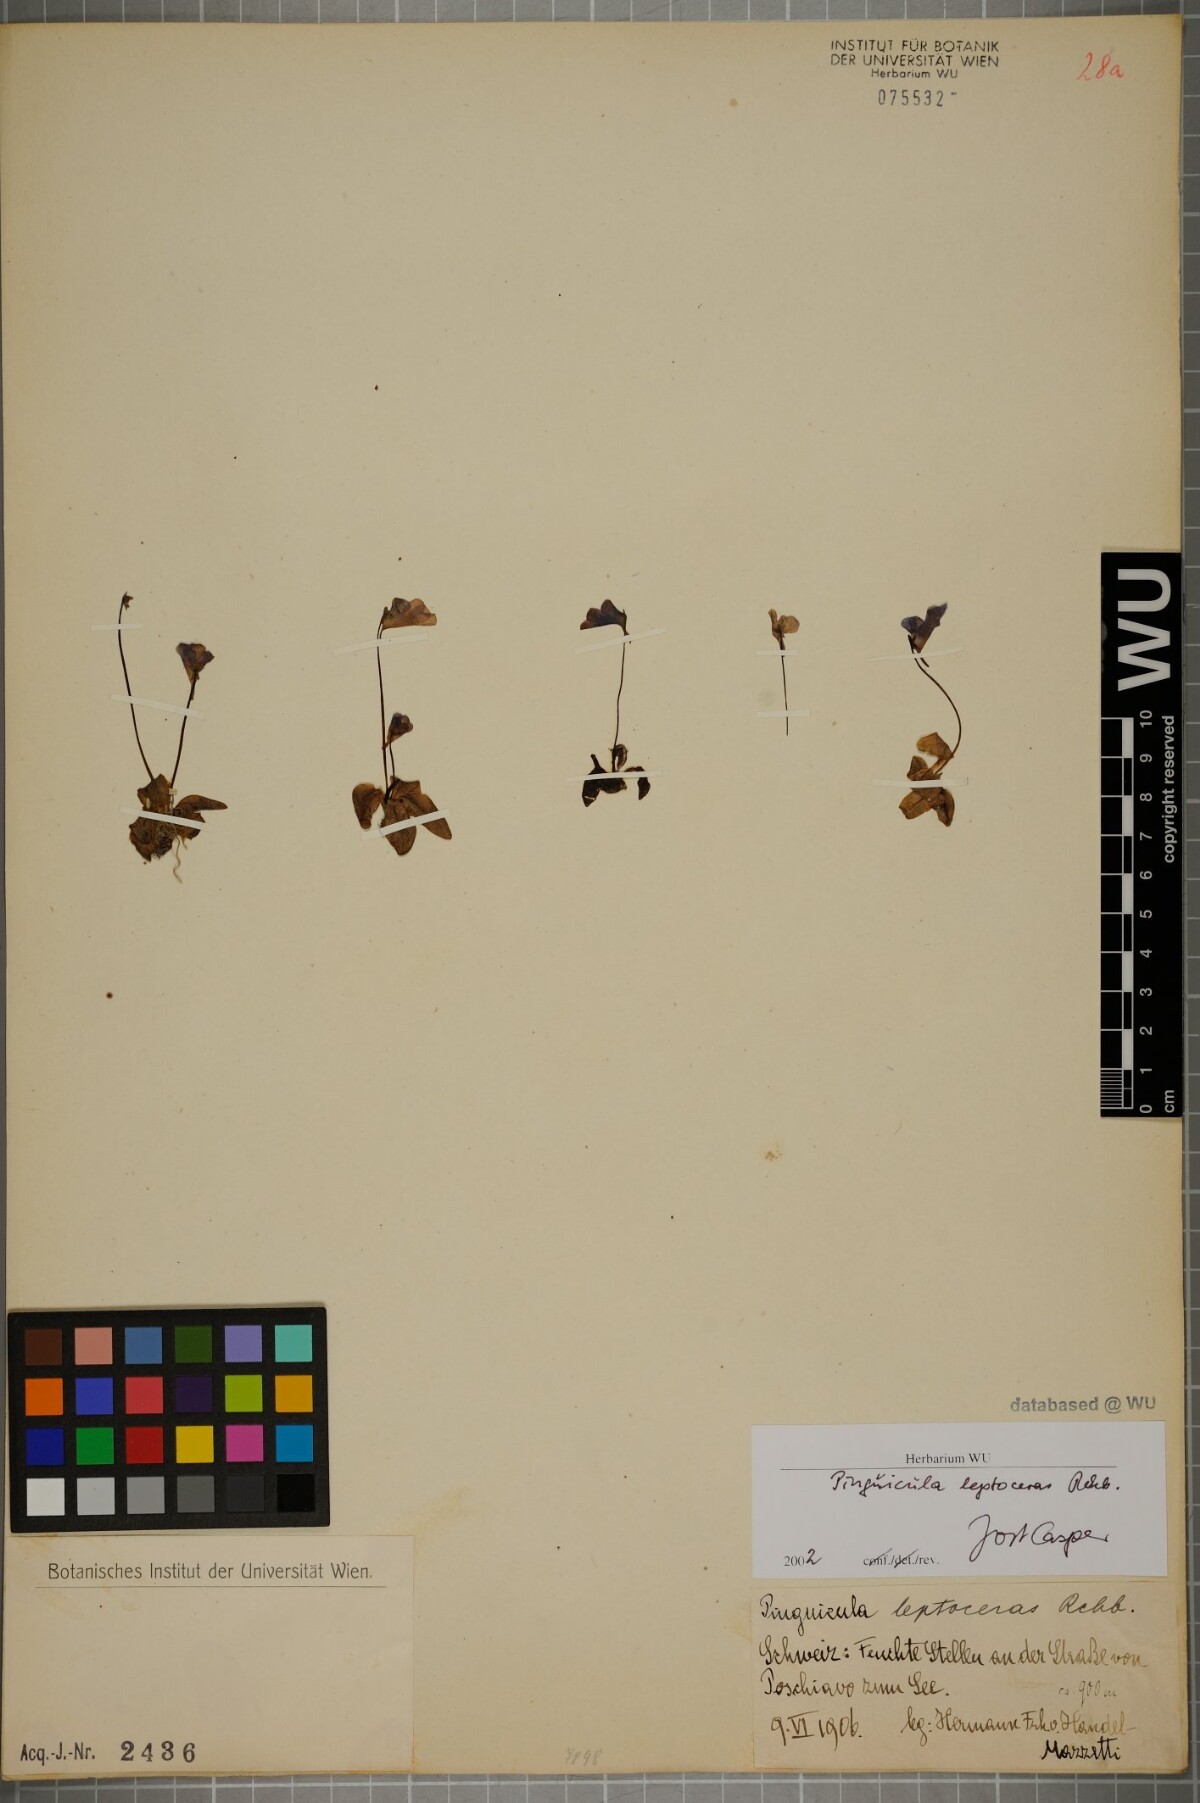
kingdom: Plantae
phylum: Tracheophyta
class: Magnoliopsida
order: Lamiales
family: Lentibulariaceae
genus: Pinguicula
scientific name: Pinguicula leptoceras
